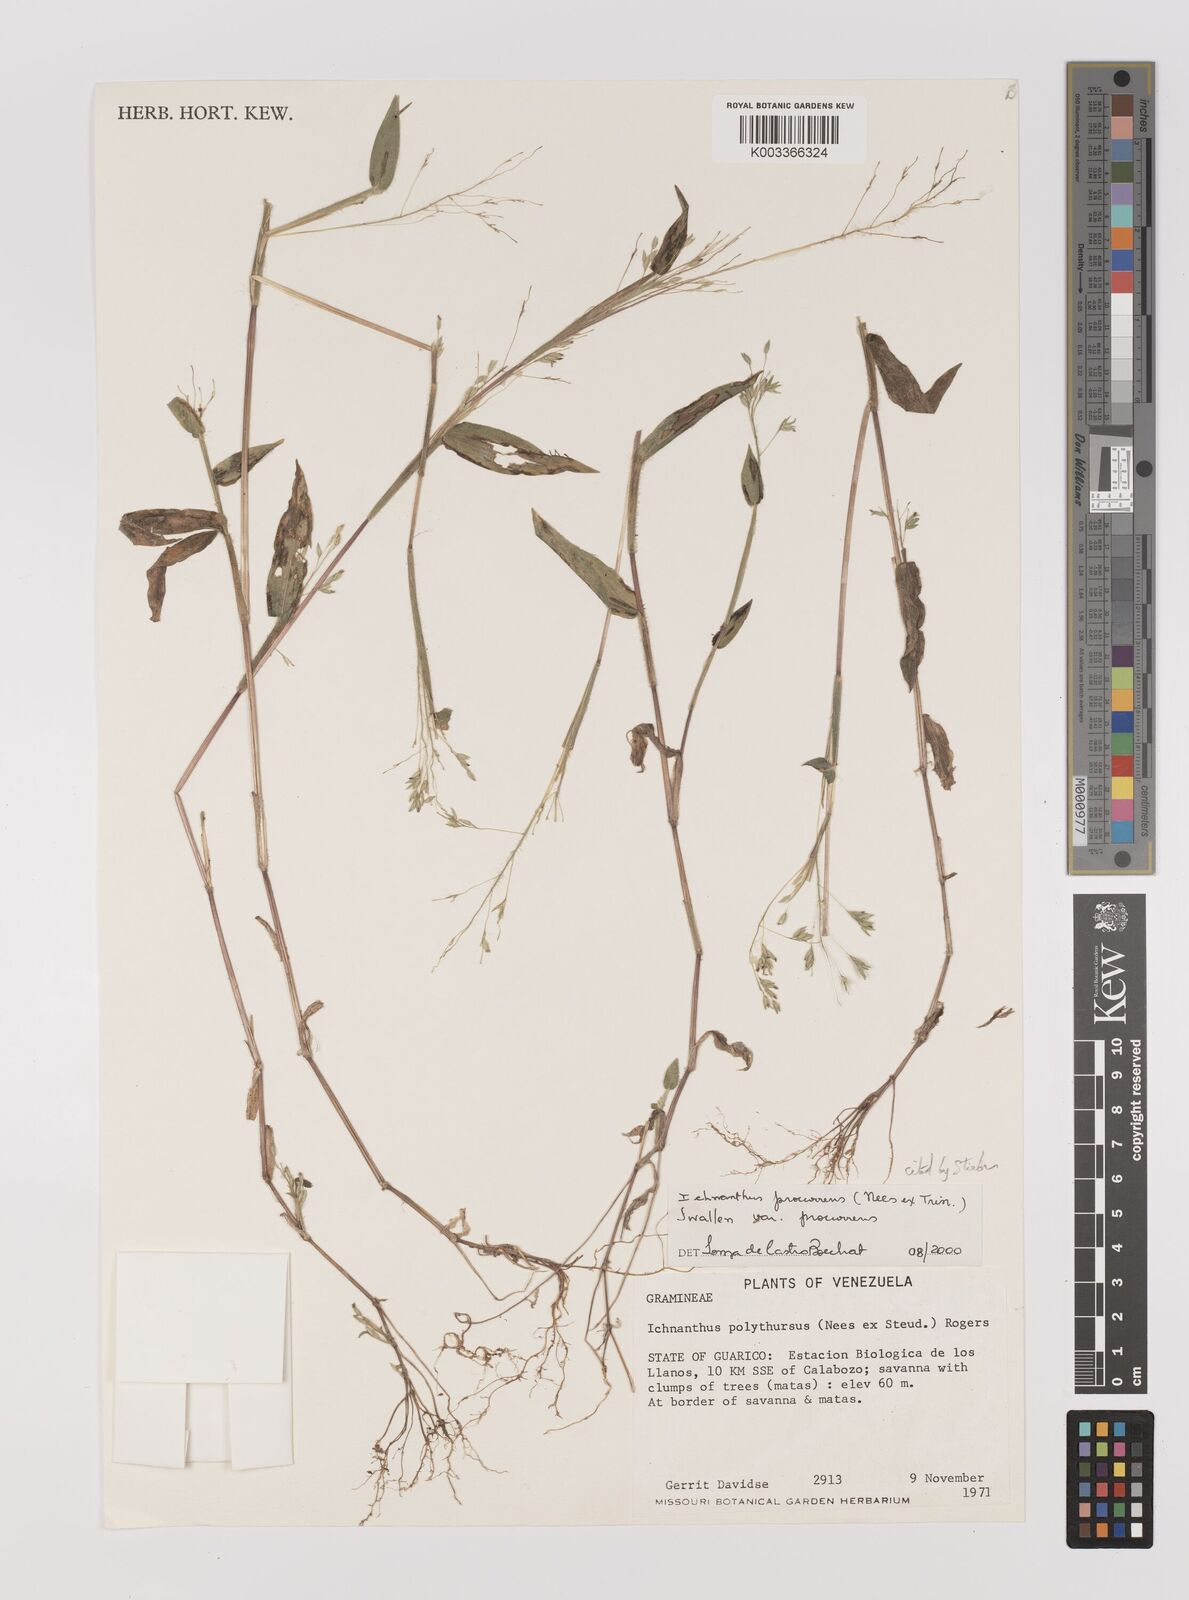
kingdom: Plantae
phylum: Tracheophyta
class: Liliopsida
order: Poales
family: Poaceae
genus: Oedochloa
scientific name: Oedochloa procurrens
